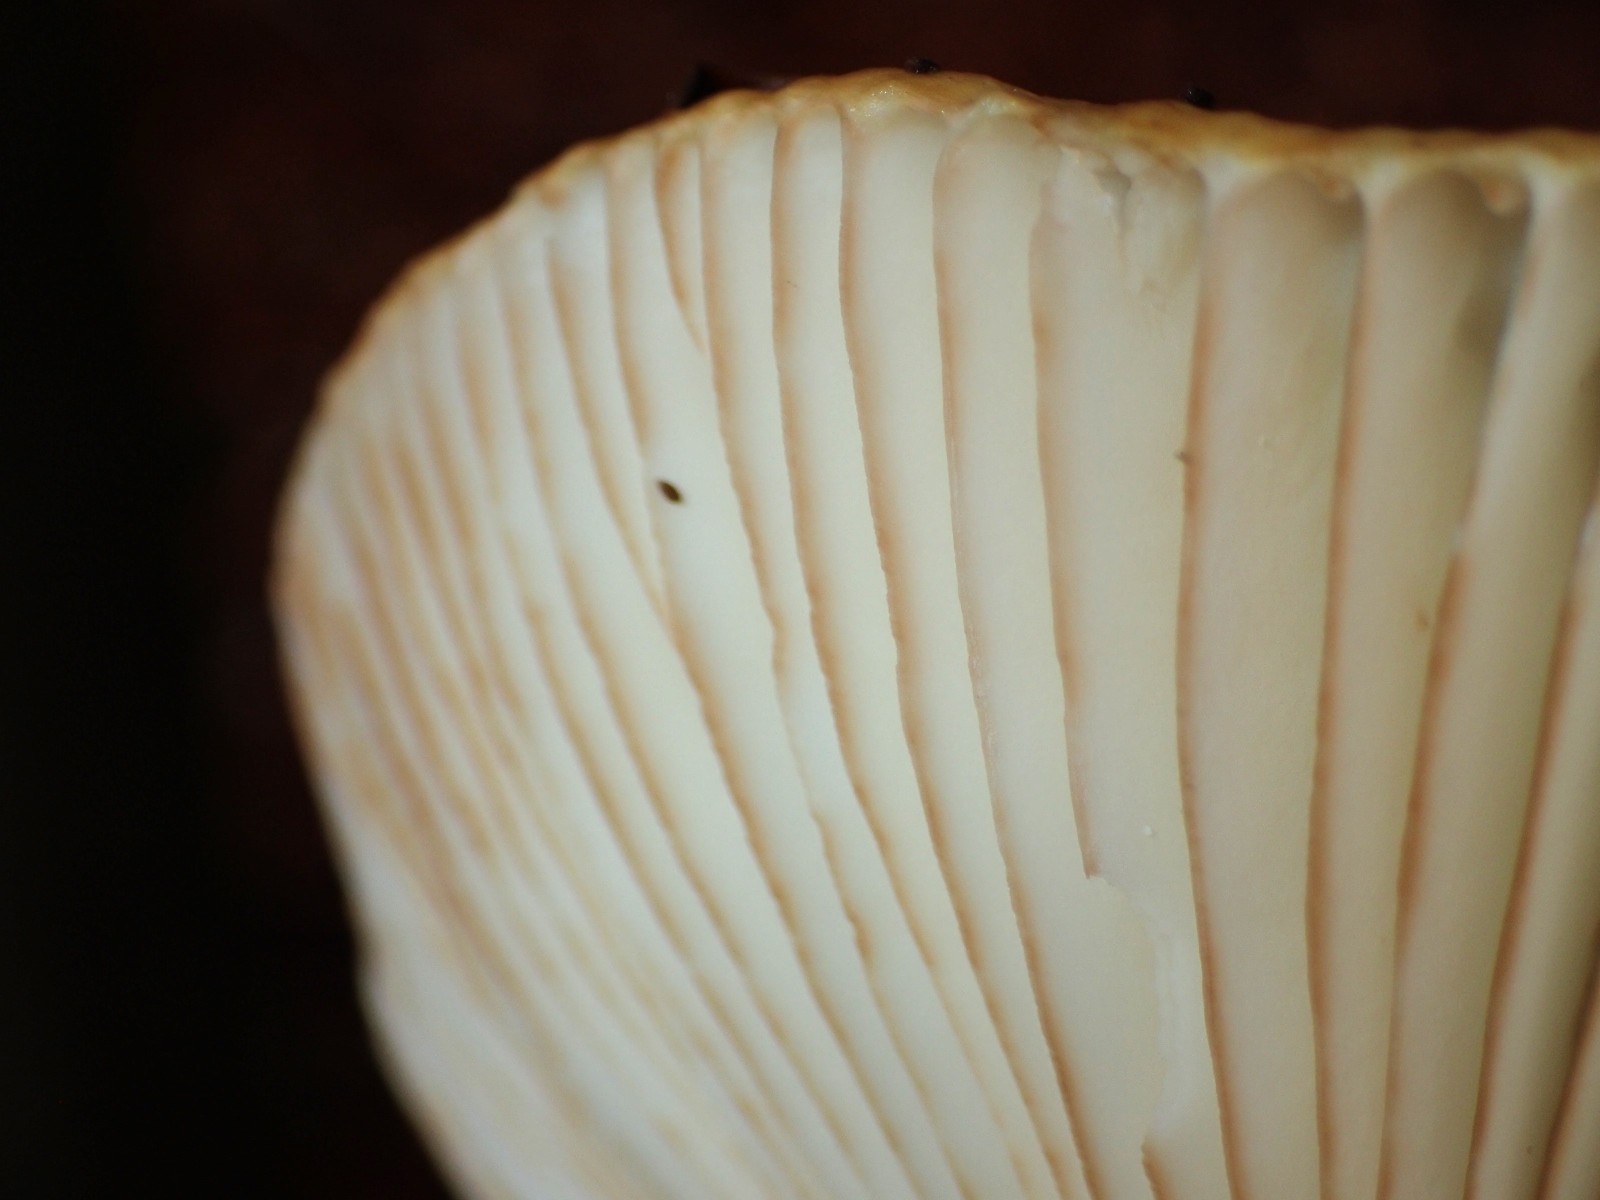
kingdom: Fungi
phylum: Basidiomycota
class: Agaricomycetes
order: Russulales
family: Russulaceae
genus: Russula
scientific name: Russula ochroleuca
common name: okkergul skørhat
